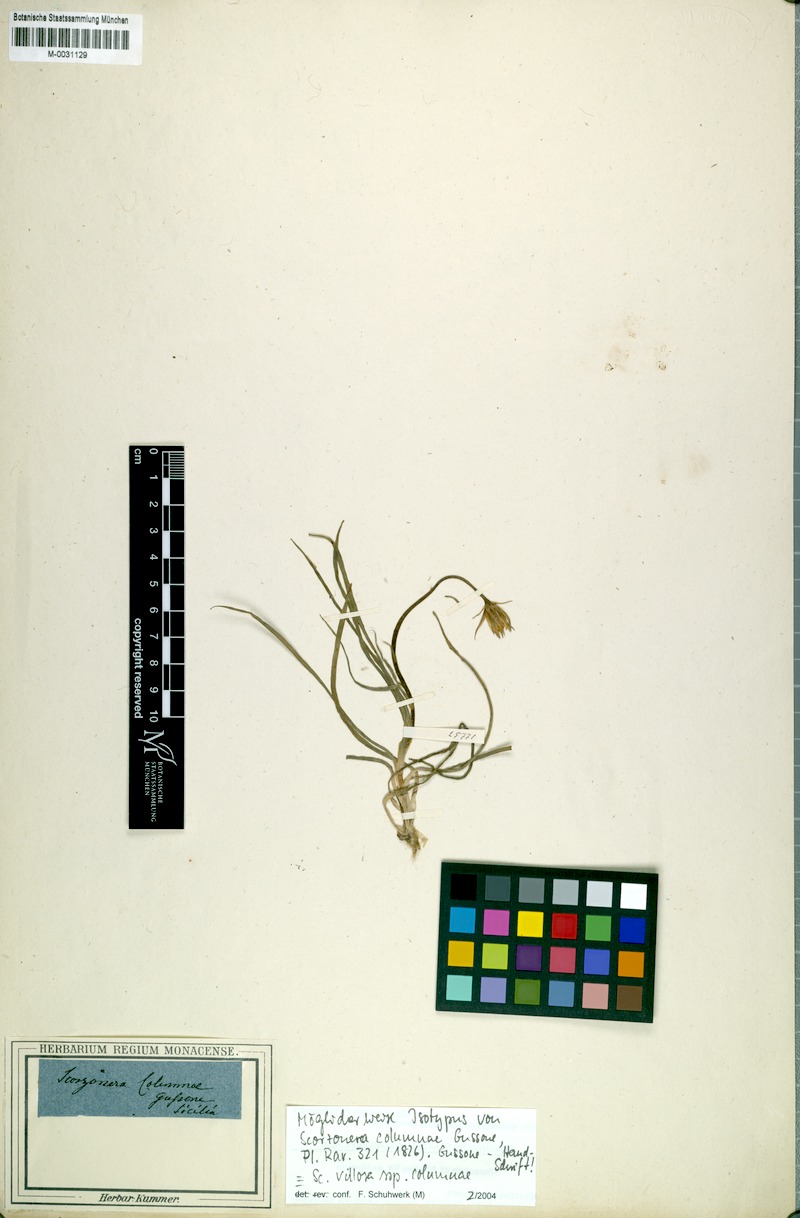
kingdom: Plantae
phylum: Tracheophyta
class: Magnoliopsida
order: Asterales
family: Asteraceae
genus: Gelasia
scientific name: Gelasia villosa
